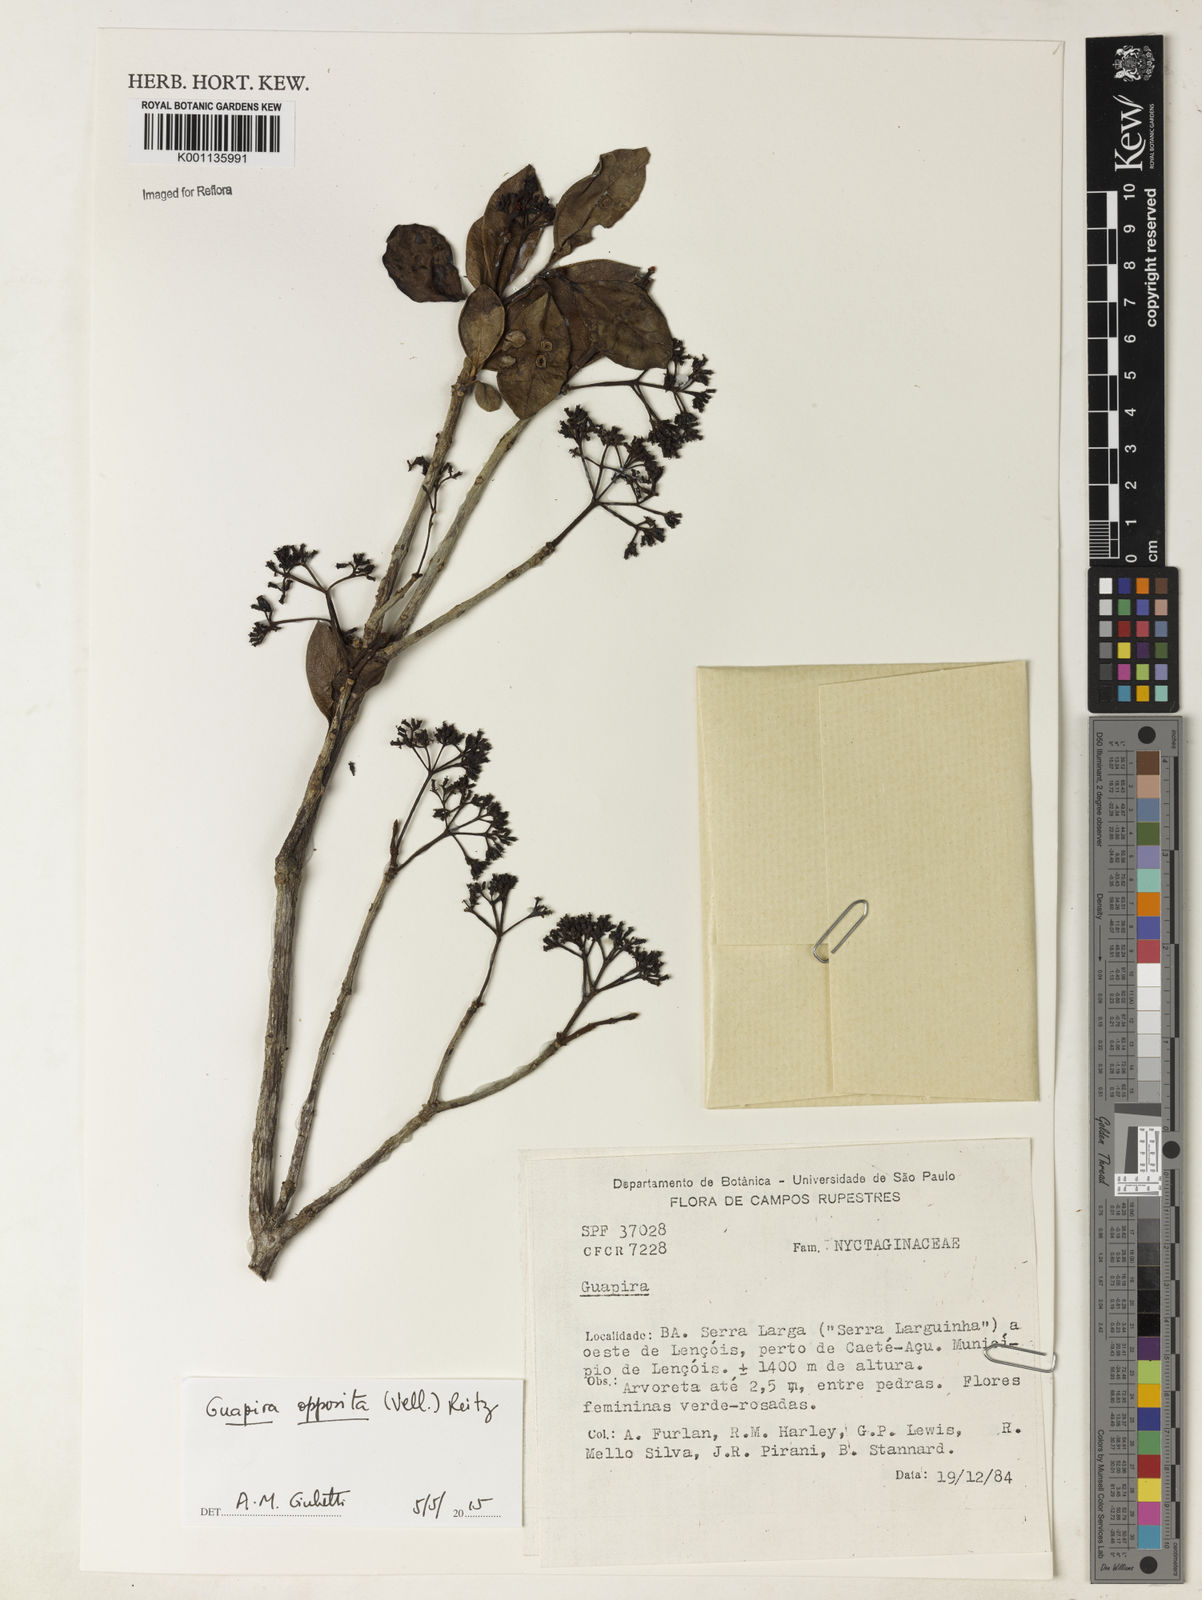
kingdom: Plantae
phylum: Tracheophyta
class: Magnoliopsida
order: Caryophyllales
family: Nyctaginaceae
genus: Guapira
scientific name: Guapira opposita
